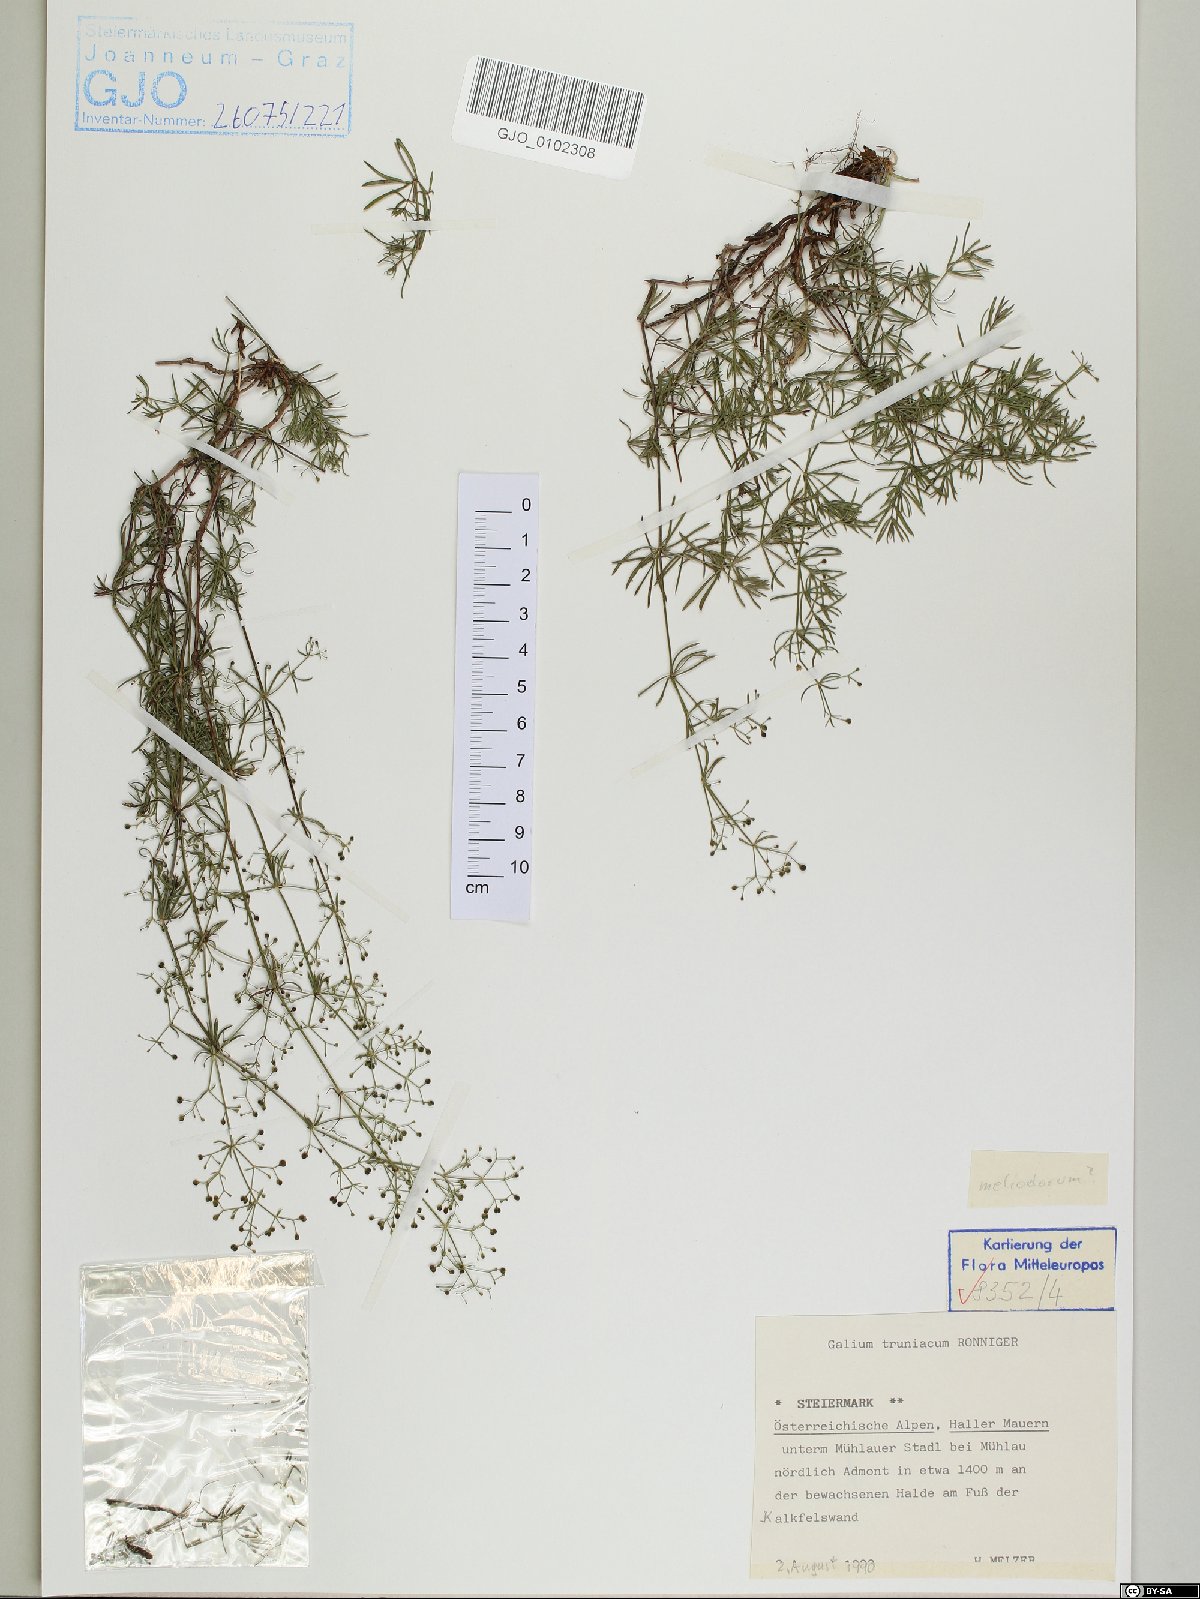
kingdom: Plantae
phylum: Tracheophyta
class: Magnoliopsida
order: Gentianales
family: Rubiaceae
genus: Galium
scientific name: Galium truniacum
